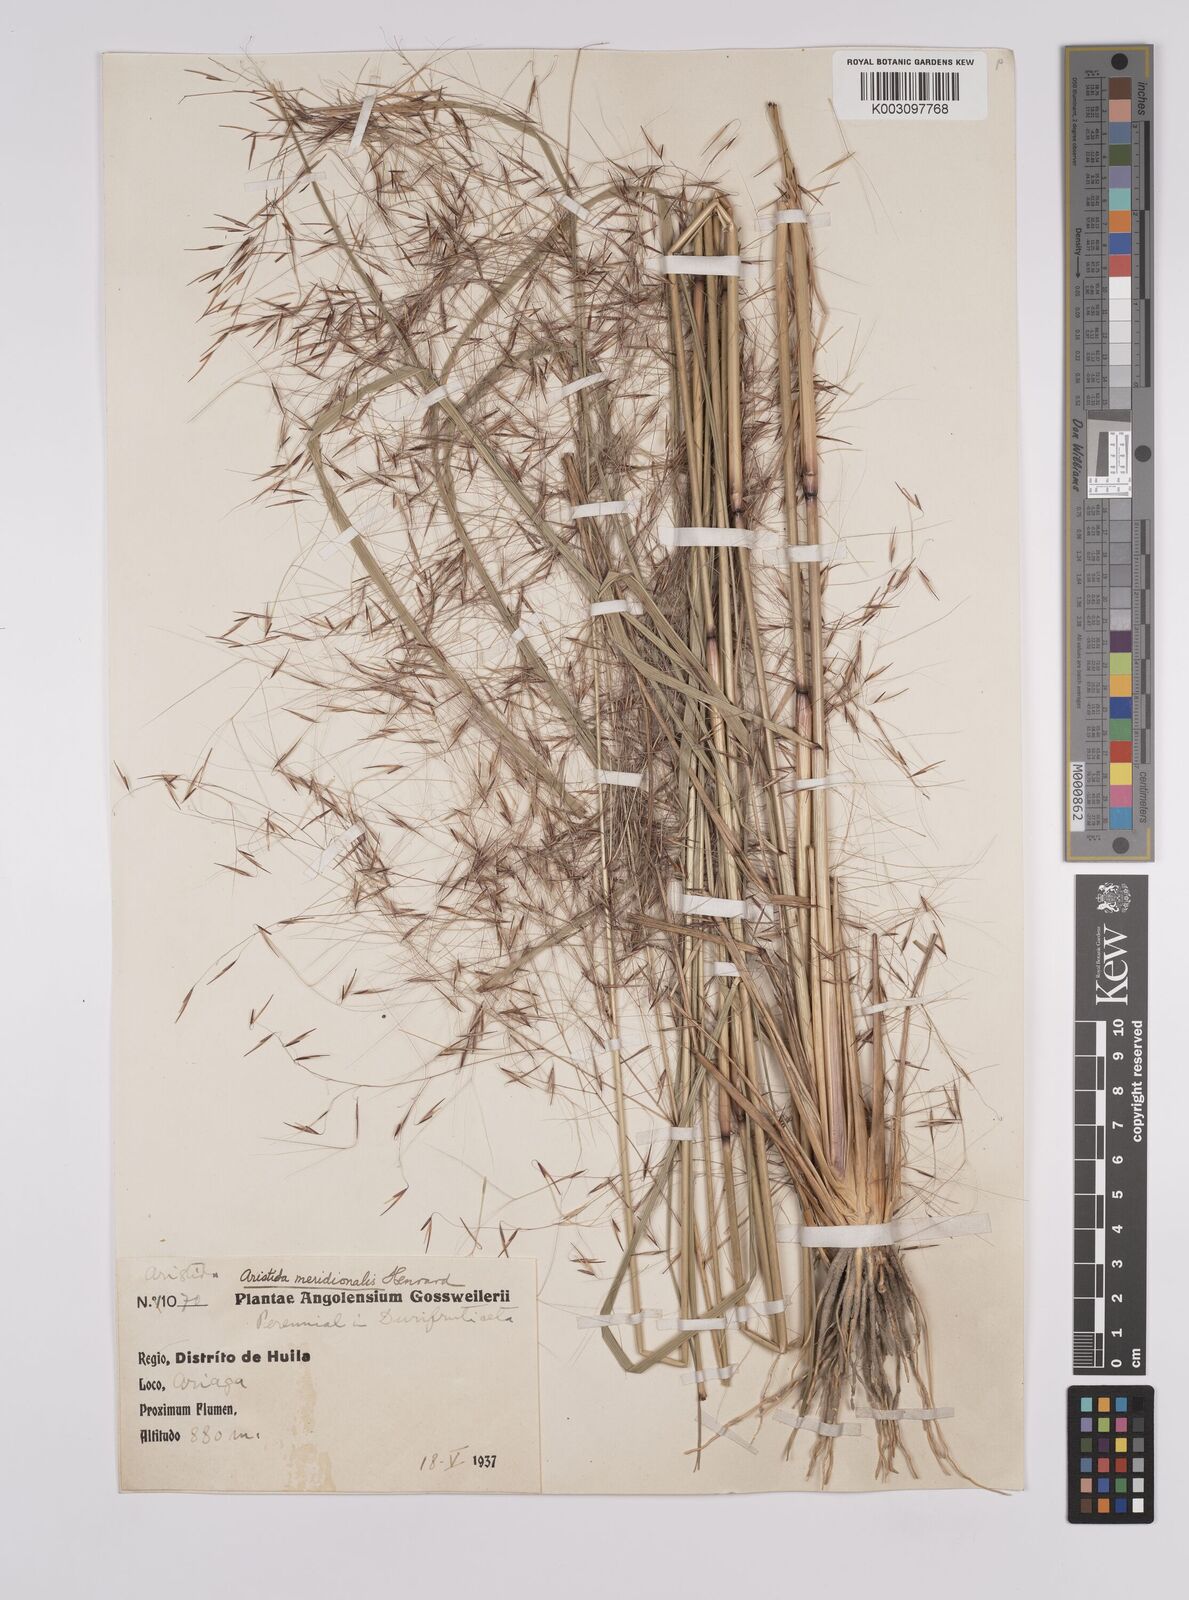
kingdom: Plantae
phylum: Tracheophyta
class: Liliopsida
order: Poales
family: Poaceae
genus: Aristida
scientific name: Aristida meridionalis
